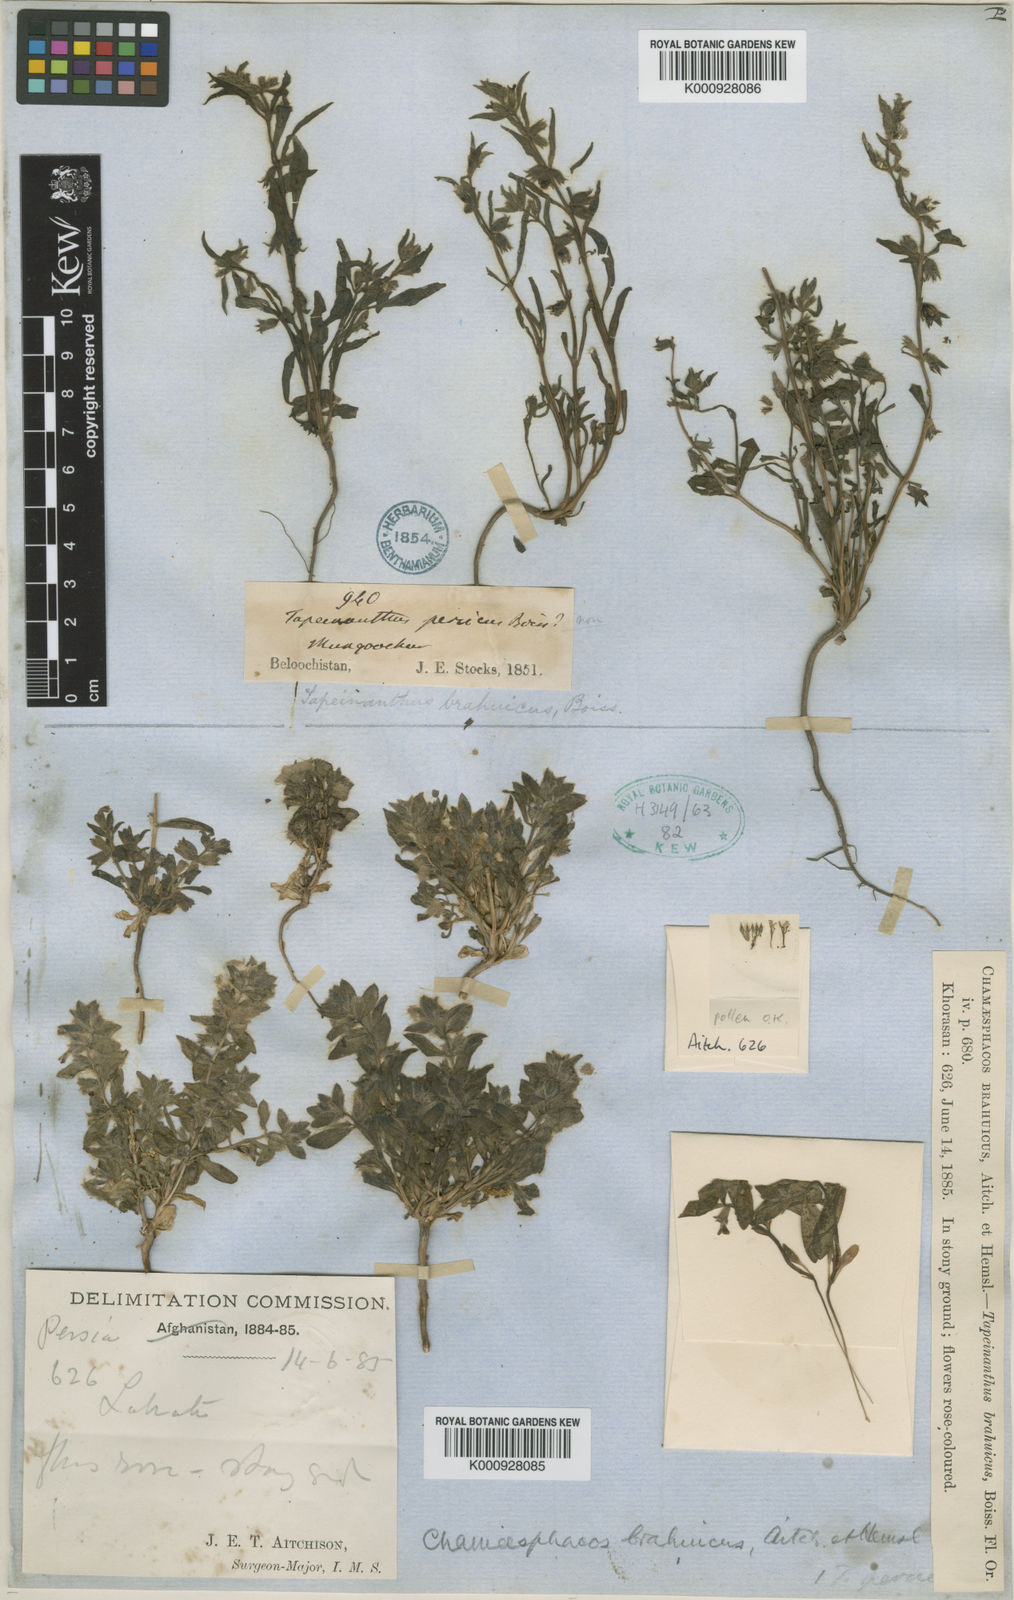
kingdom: Plantae
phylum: Tracheophyta
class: Magnoliopsida
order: Lamiales
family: Lamiaceae
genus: Thuspeinanta
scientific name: Thuspeinanta brahuica
